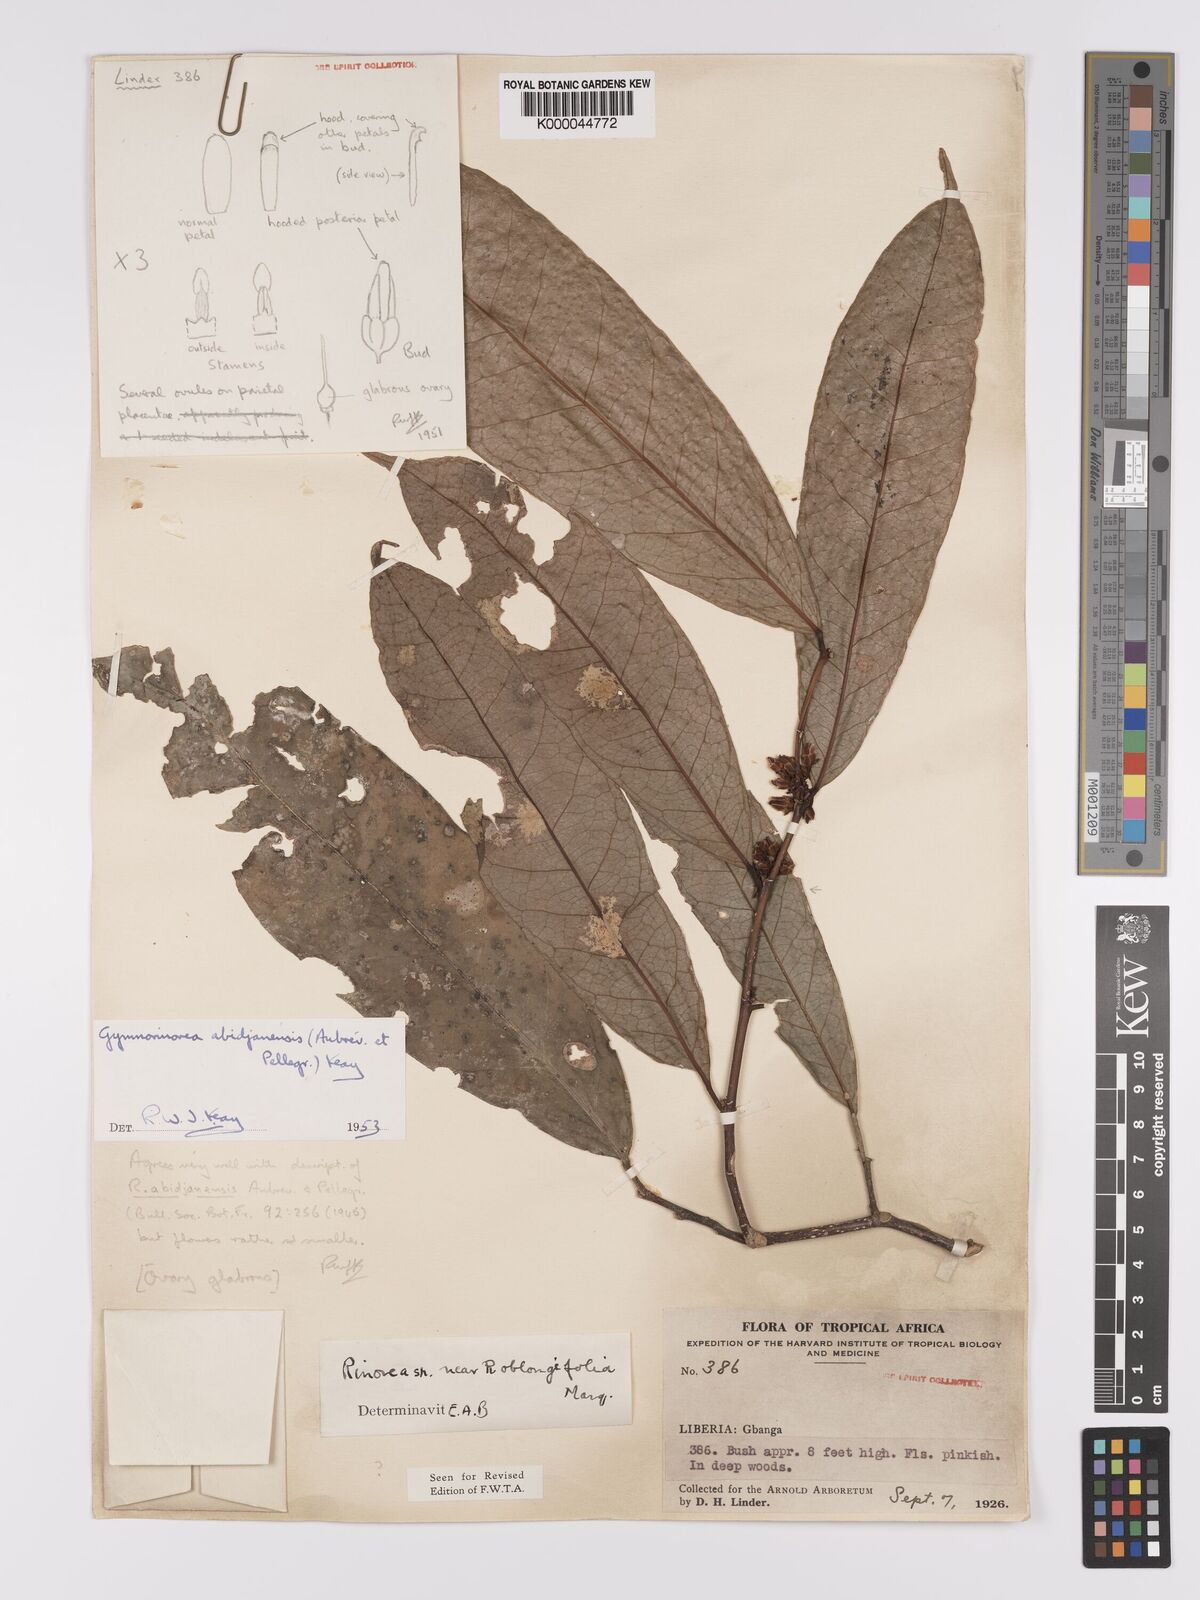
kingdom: Plantae
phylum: Tracheophyta
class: Magnoliopsida
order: Malpighiales
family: Violaceae
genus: Decorsella
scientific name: Decorsella paradoxa
